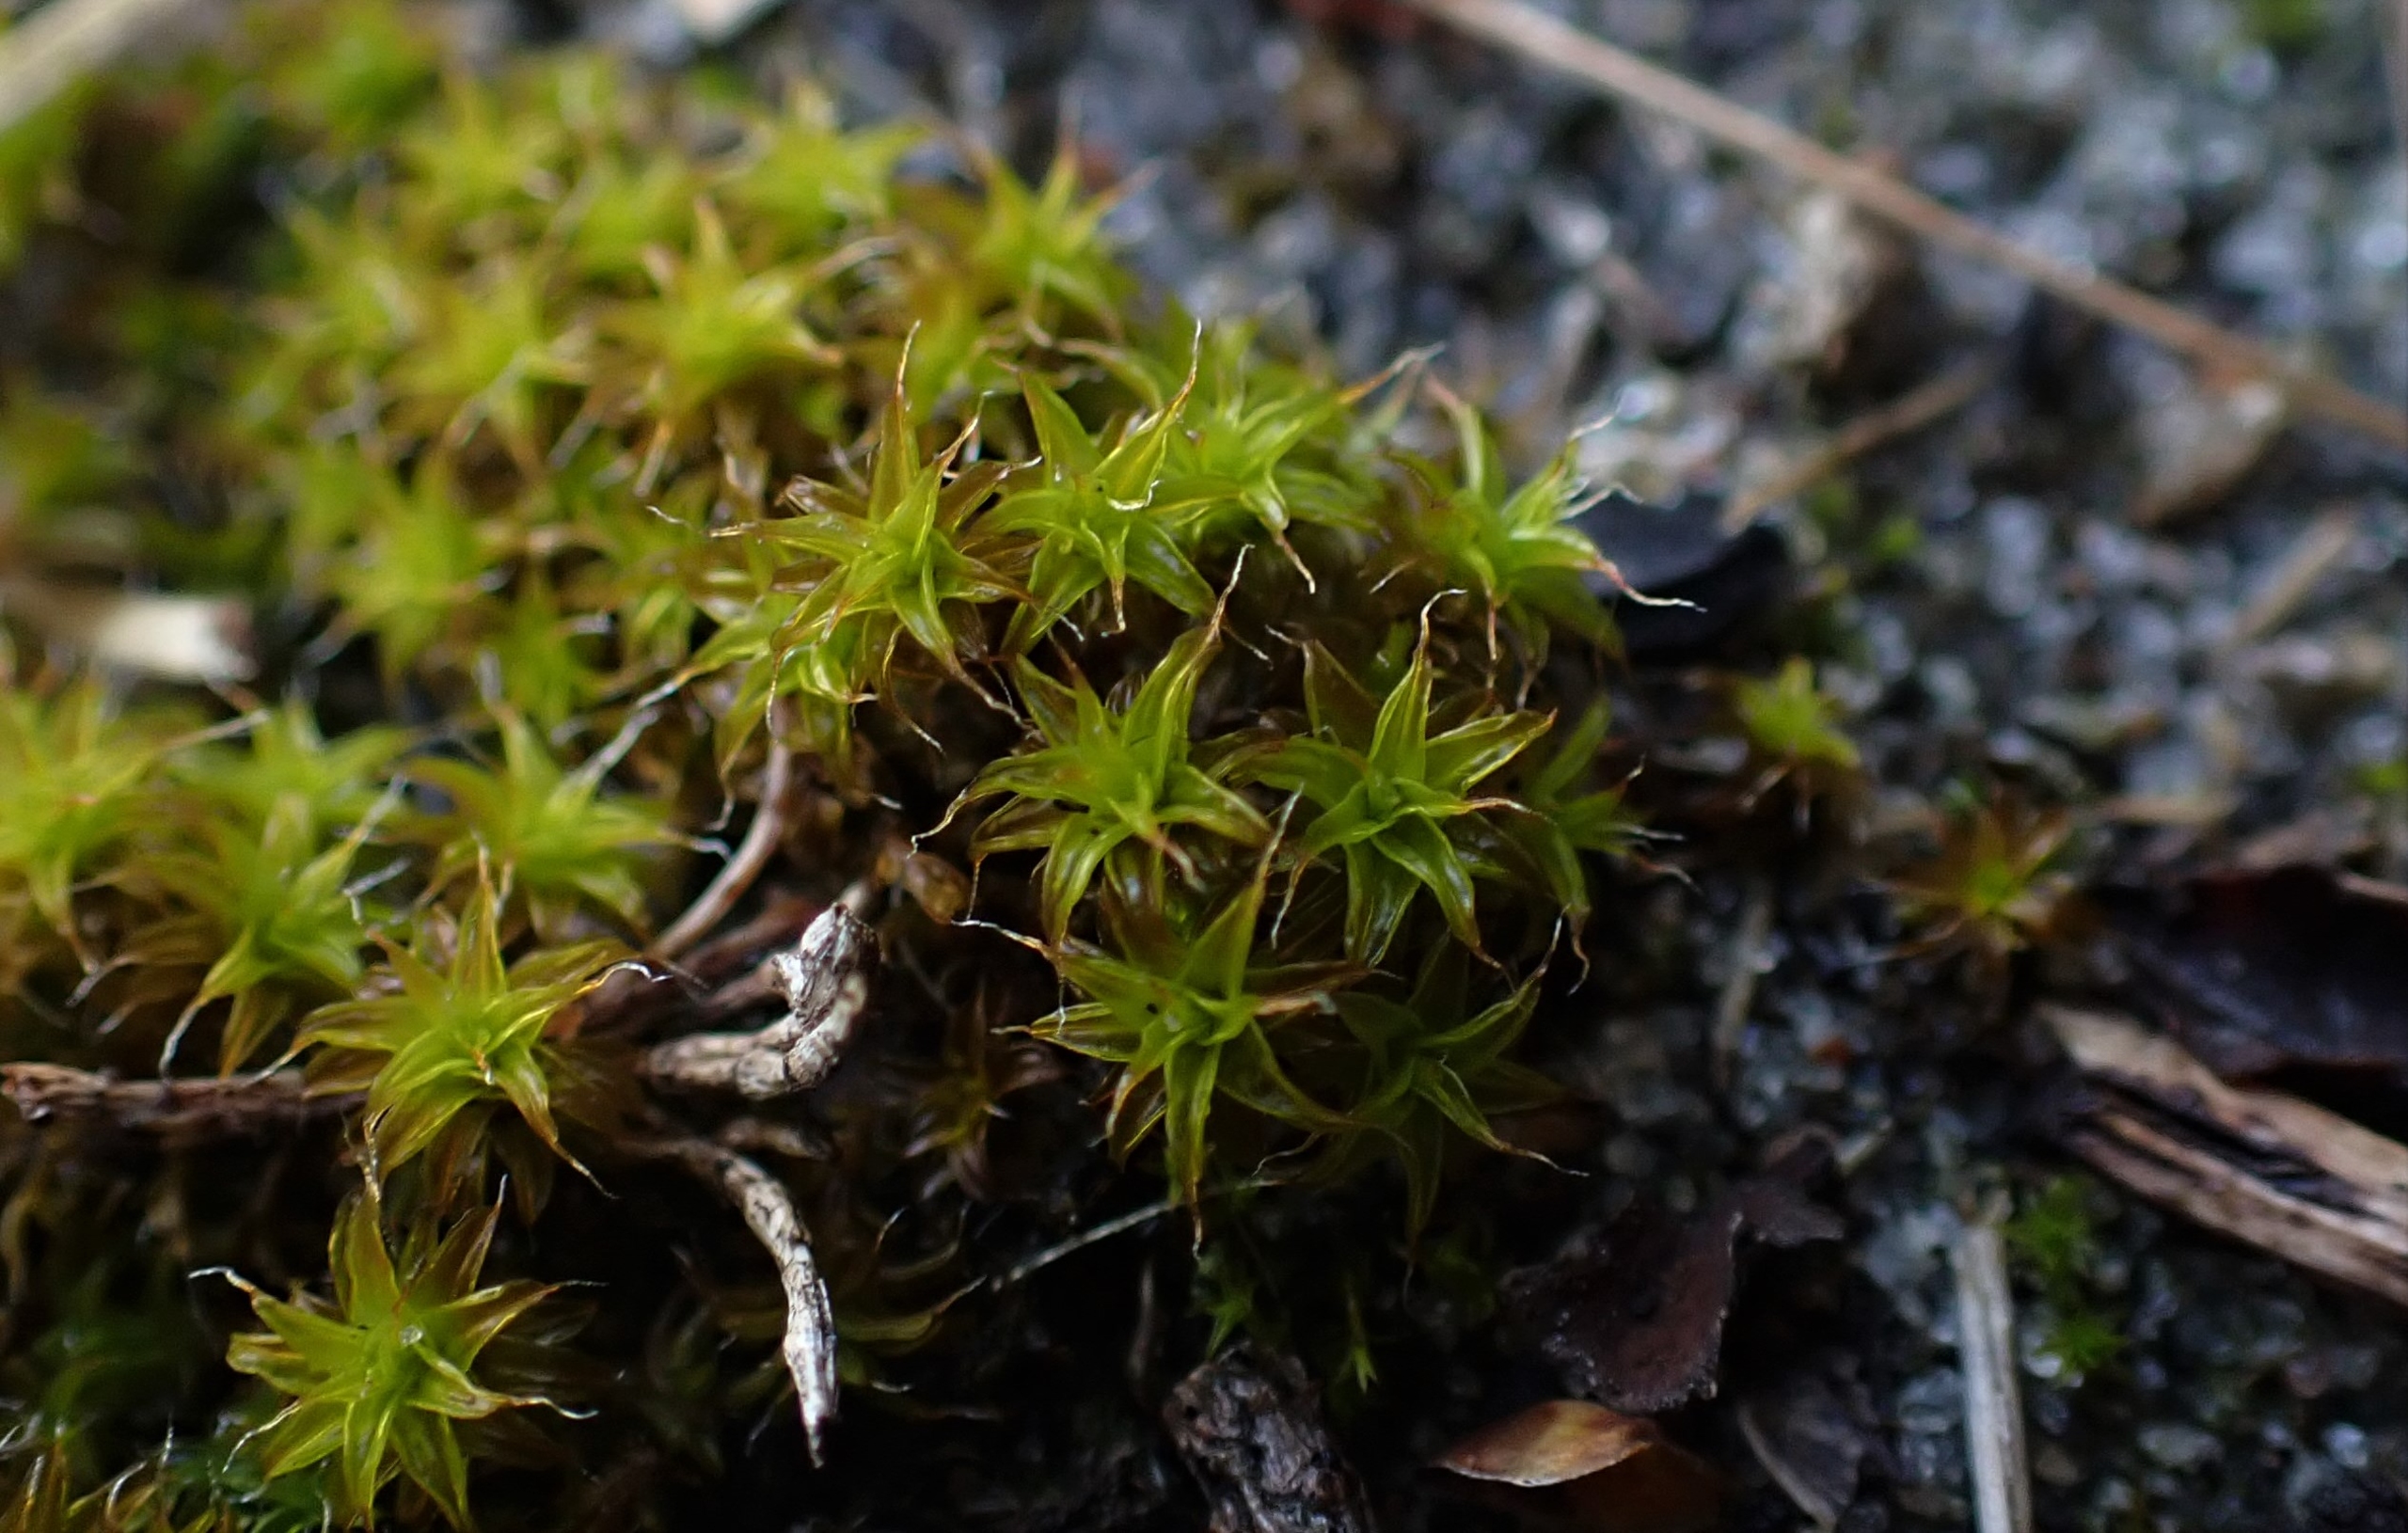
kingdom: Plantae
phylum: Bryophyta
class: Bryopsida
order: Pottiales
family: Pottiaceae
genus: Syntrichia
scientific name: Syntrichia ruralis
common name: Spidsbladet hårstjerne
